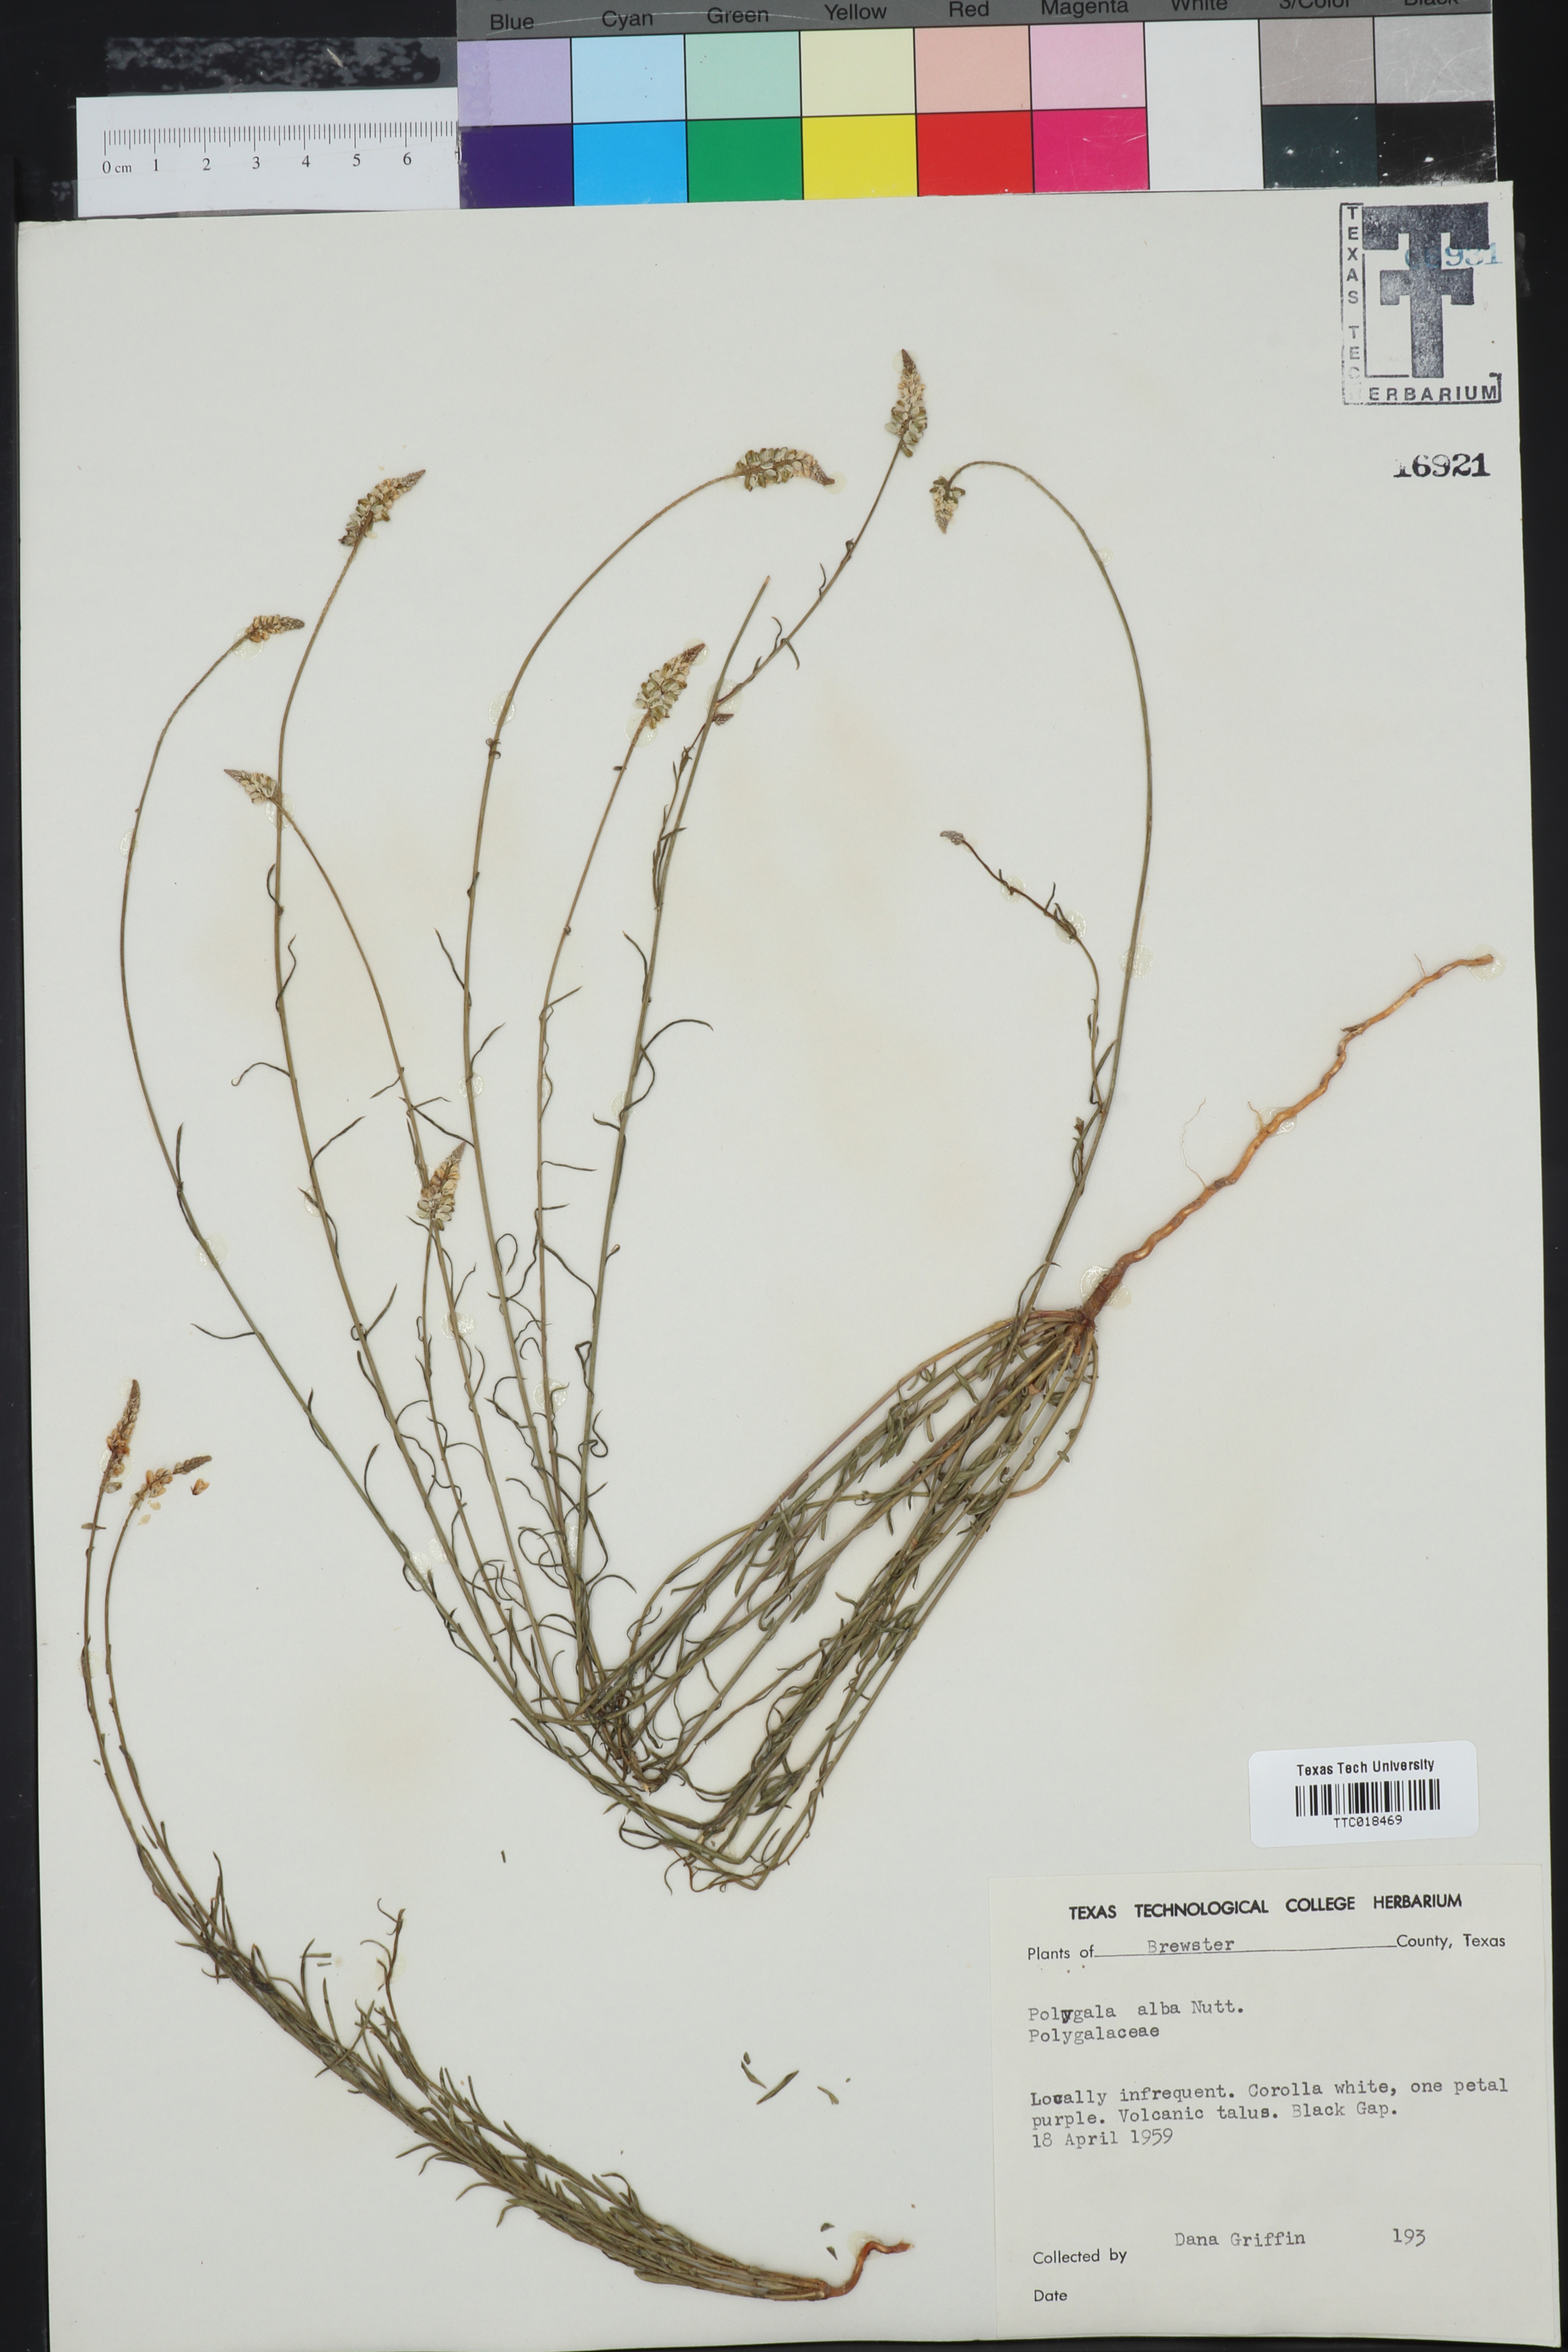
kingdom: Plantae
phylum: Tracheophyta
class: Magnoliopsida
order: Fabales
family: Polygalaceae
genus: Polygala
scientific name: Polygala alba
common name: White milkwort
